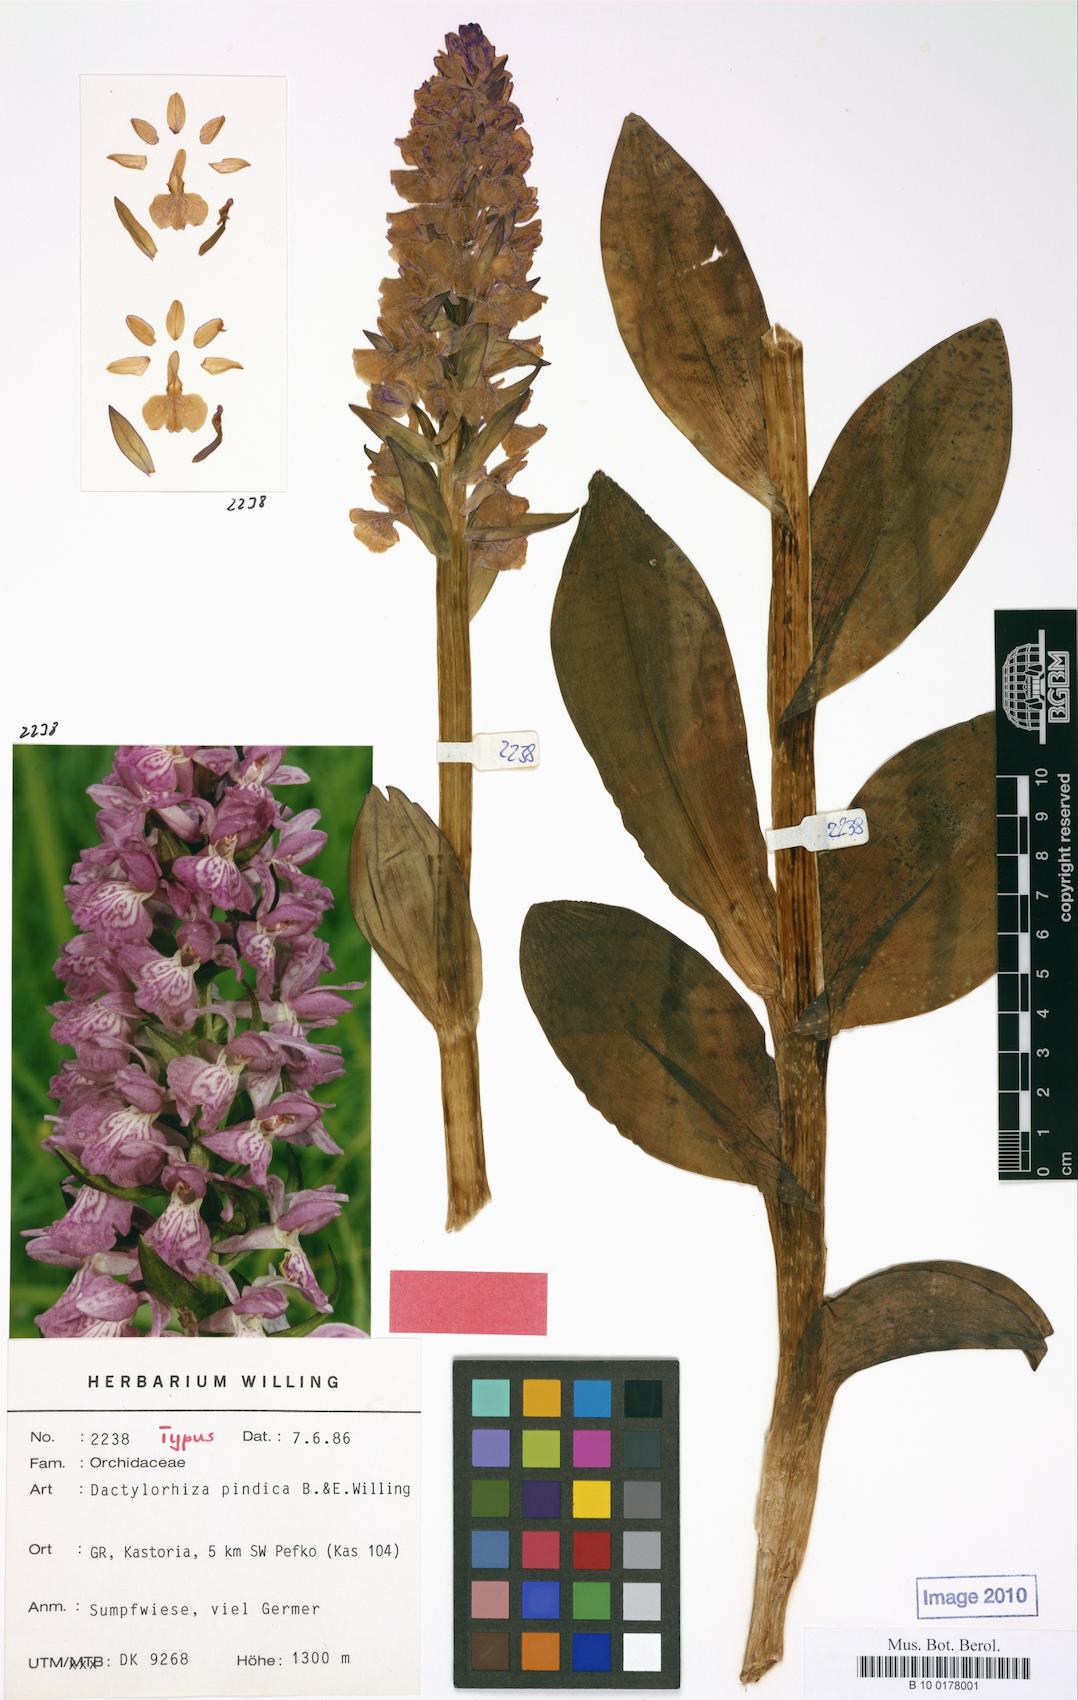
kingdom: Plantae
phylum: Tracheophyta
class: Liliopsida
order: Asparagales
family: Orchidaceae
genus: Dactylorhiza
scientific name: Dactylorhiza majalis
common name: Marsh orchid
